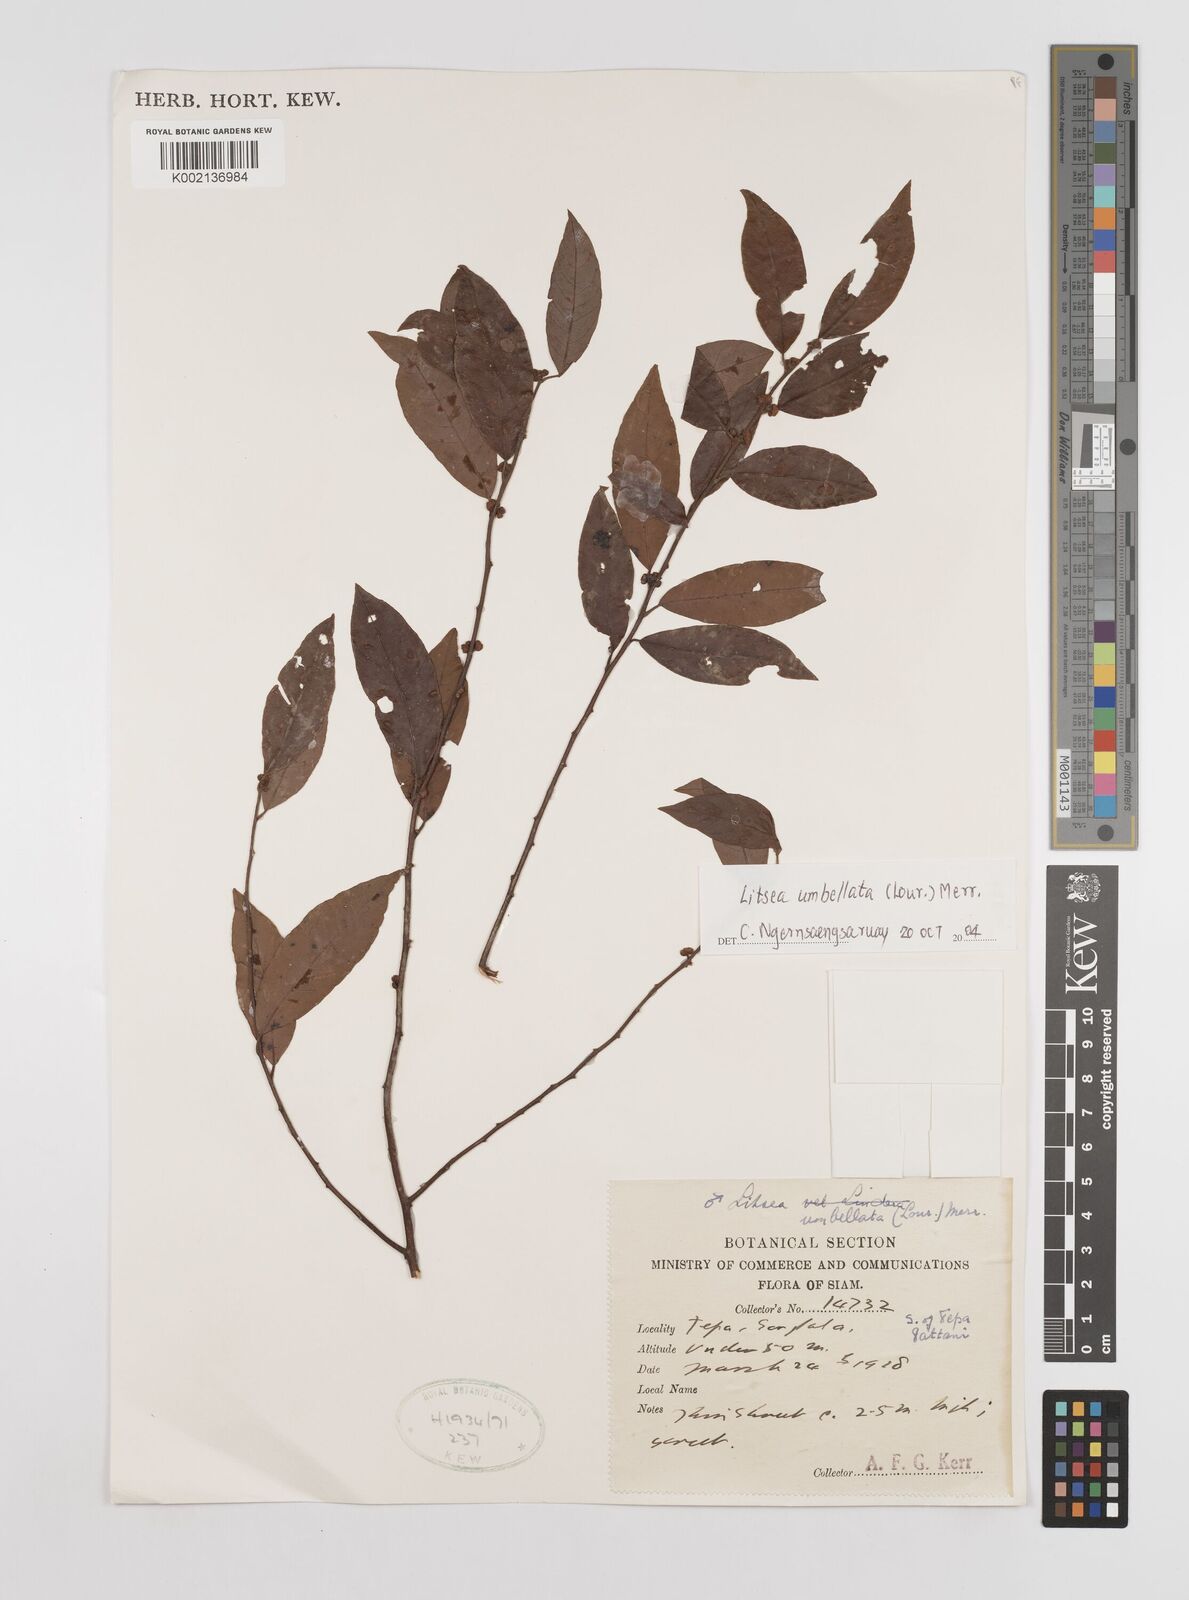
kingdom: Plantae
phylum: Tracheophyta
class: Magnoliopsida
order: Laurales
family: Lauraceae
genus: Litsea
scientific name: Litsea umbellata
